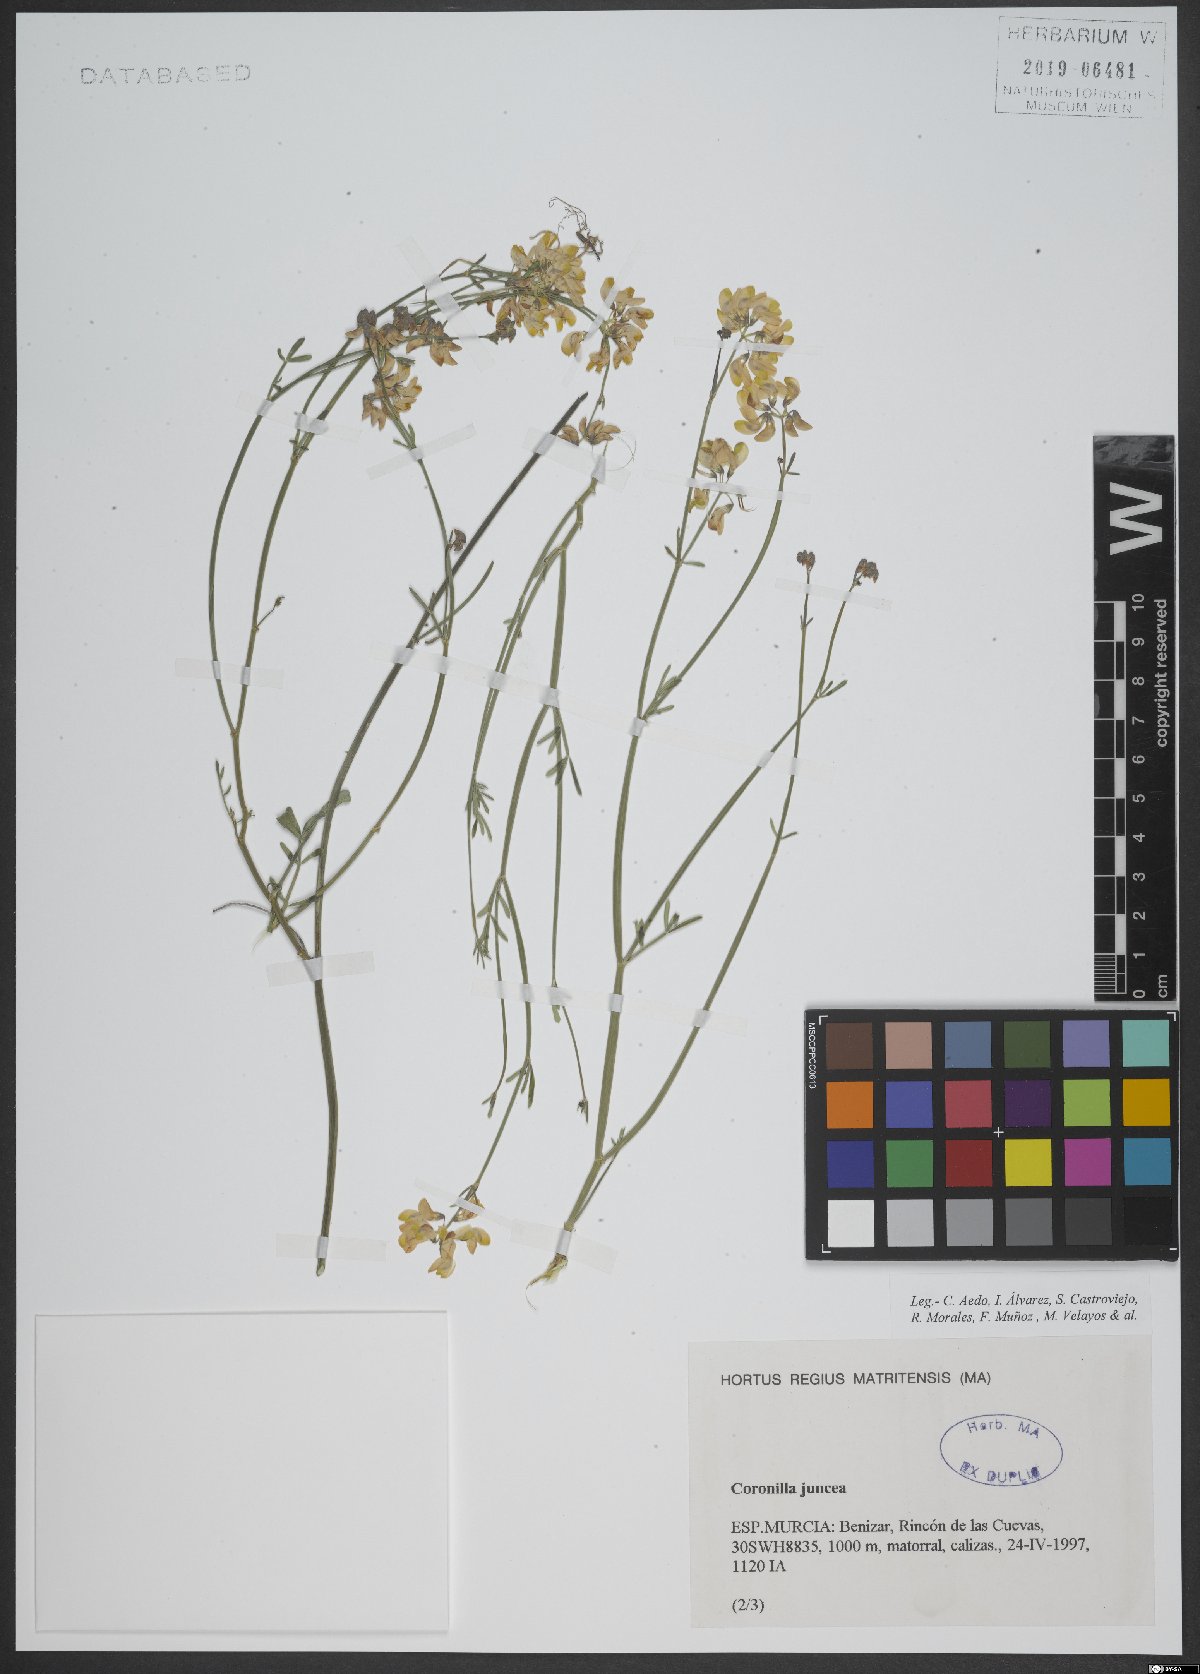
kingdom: Plantae
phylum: Tracheophyta
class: Magnoliopsida
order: Fabales
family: Fabaceae
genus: Coronilla
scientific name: Coronilla juncea
